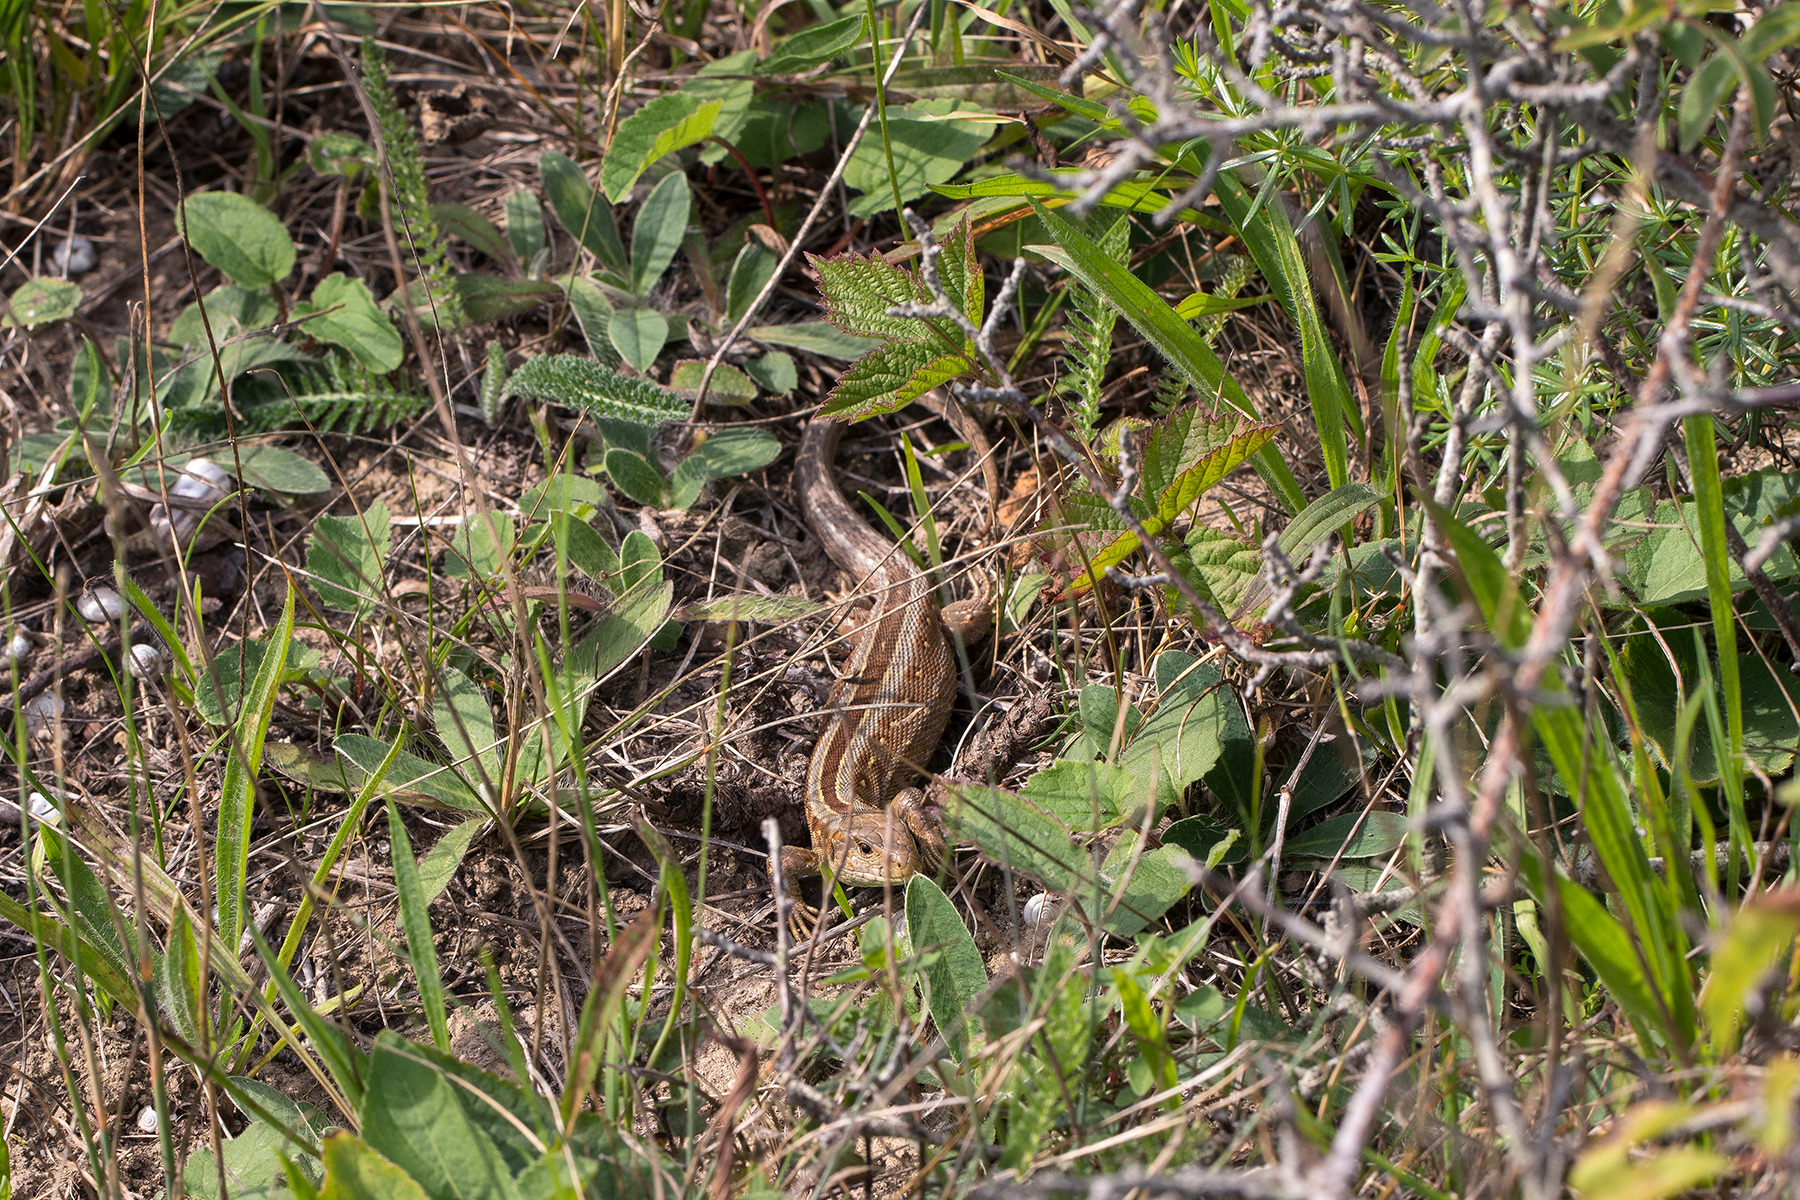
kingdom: Animalia
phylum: Chordata
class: Squamata
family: Lacertidae
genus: Lacerta
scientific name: Lacerta agilis
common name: Markfirben
